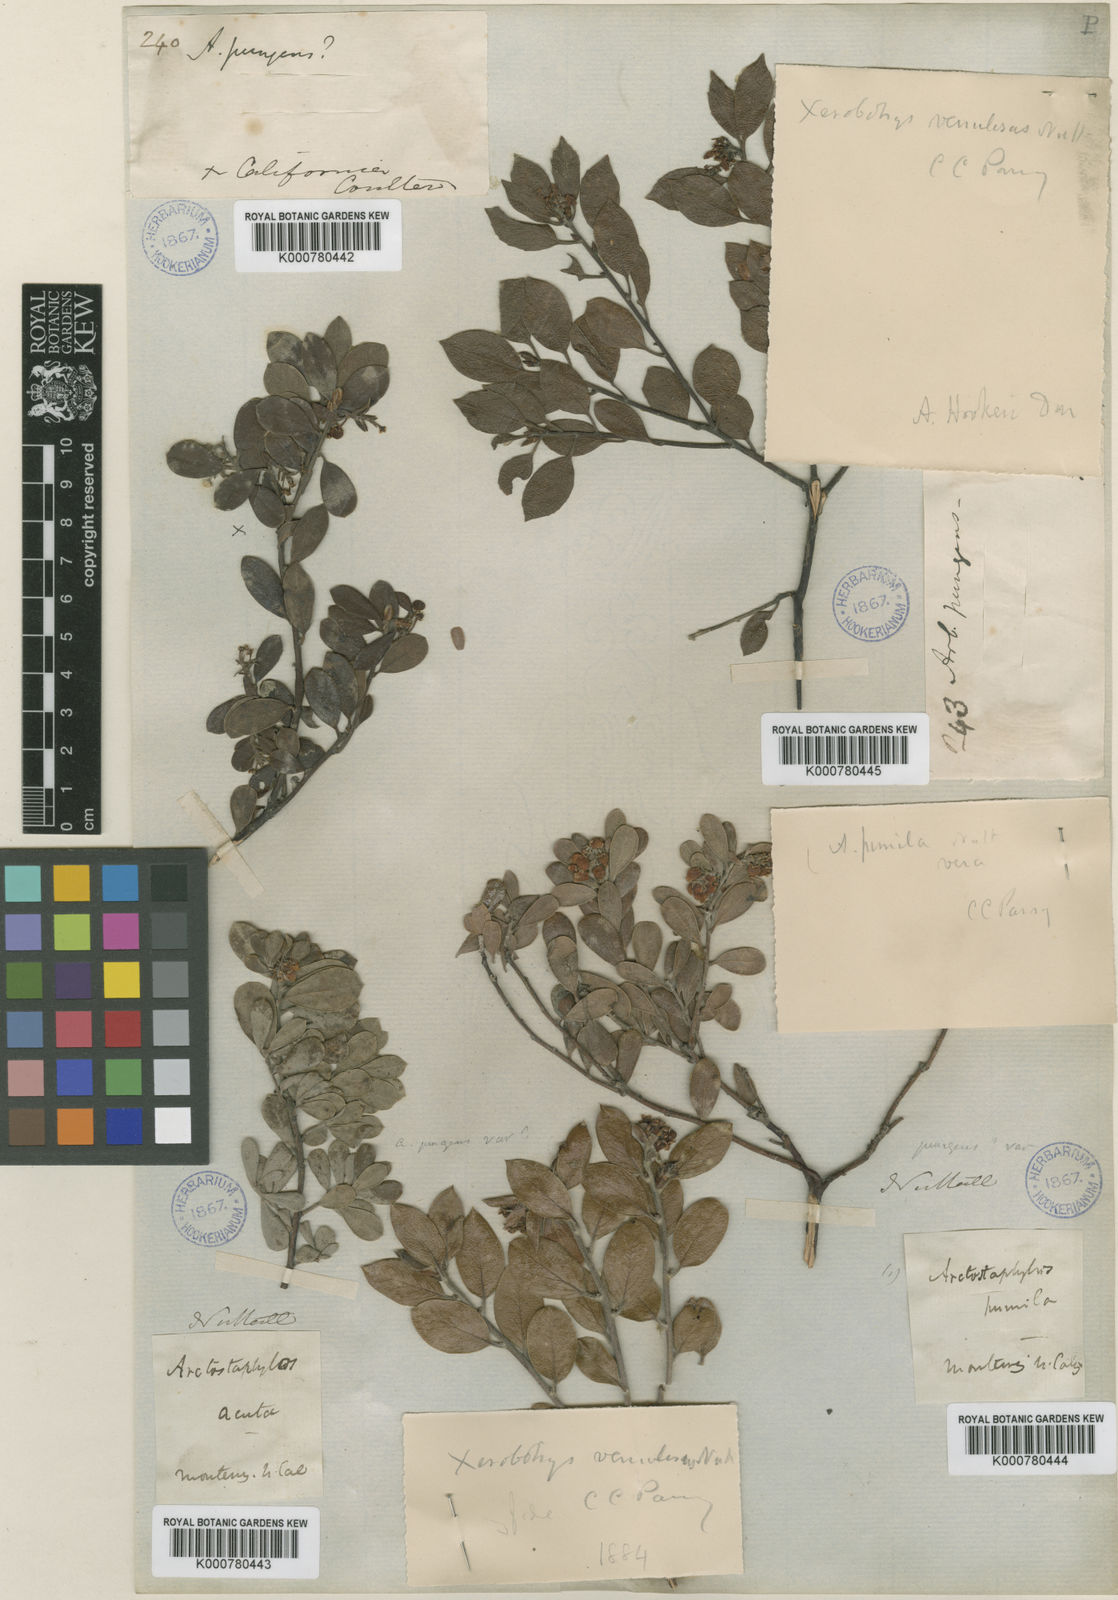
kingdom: Plantae
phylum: Tracheophyta
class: Magnoliopsida
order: Ericales
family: Ericaceae
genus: Arctostaphylos
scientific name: Arctostaphylos pumila
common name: Sandmat manzanita
